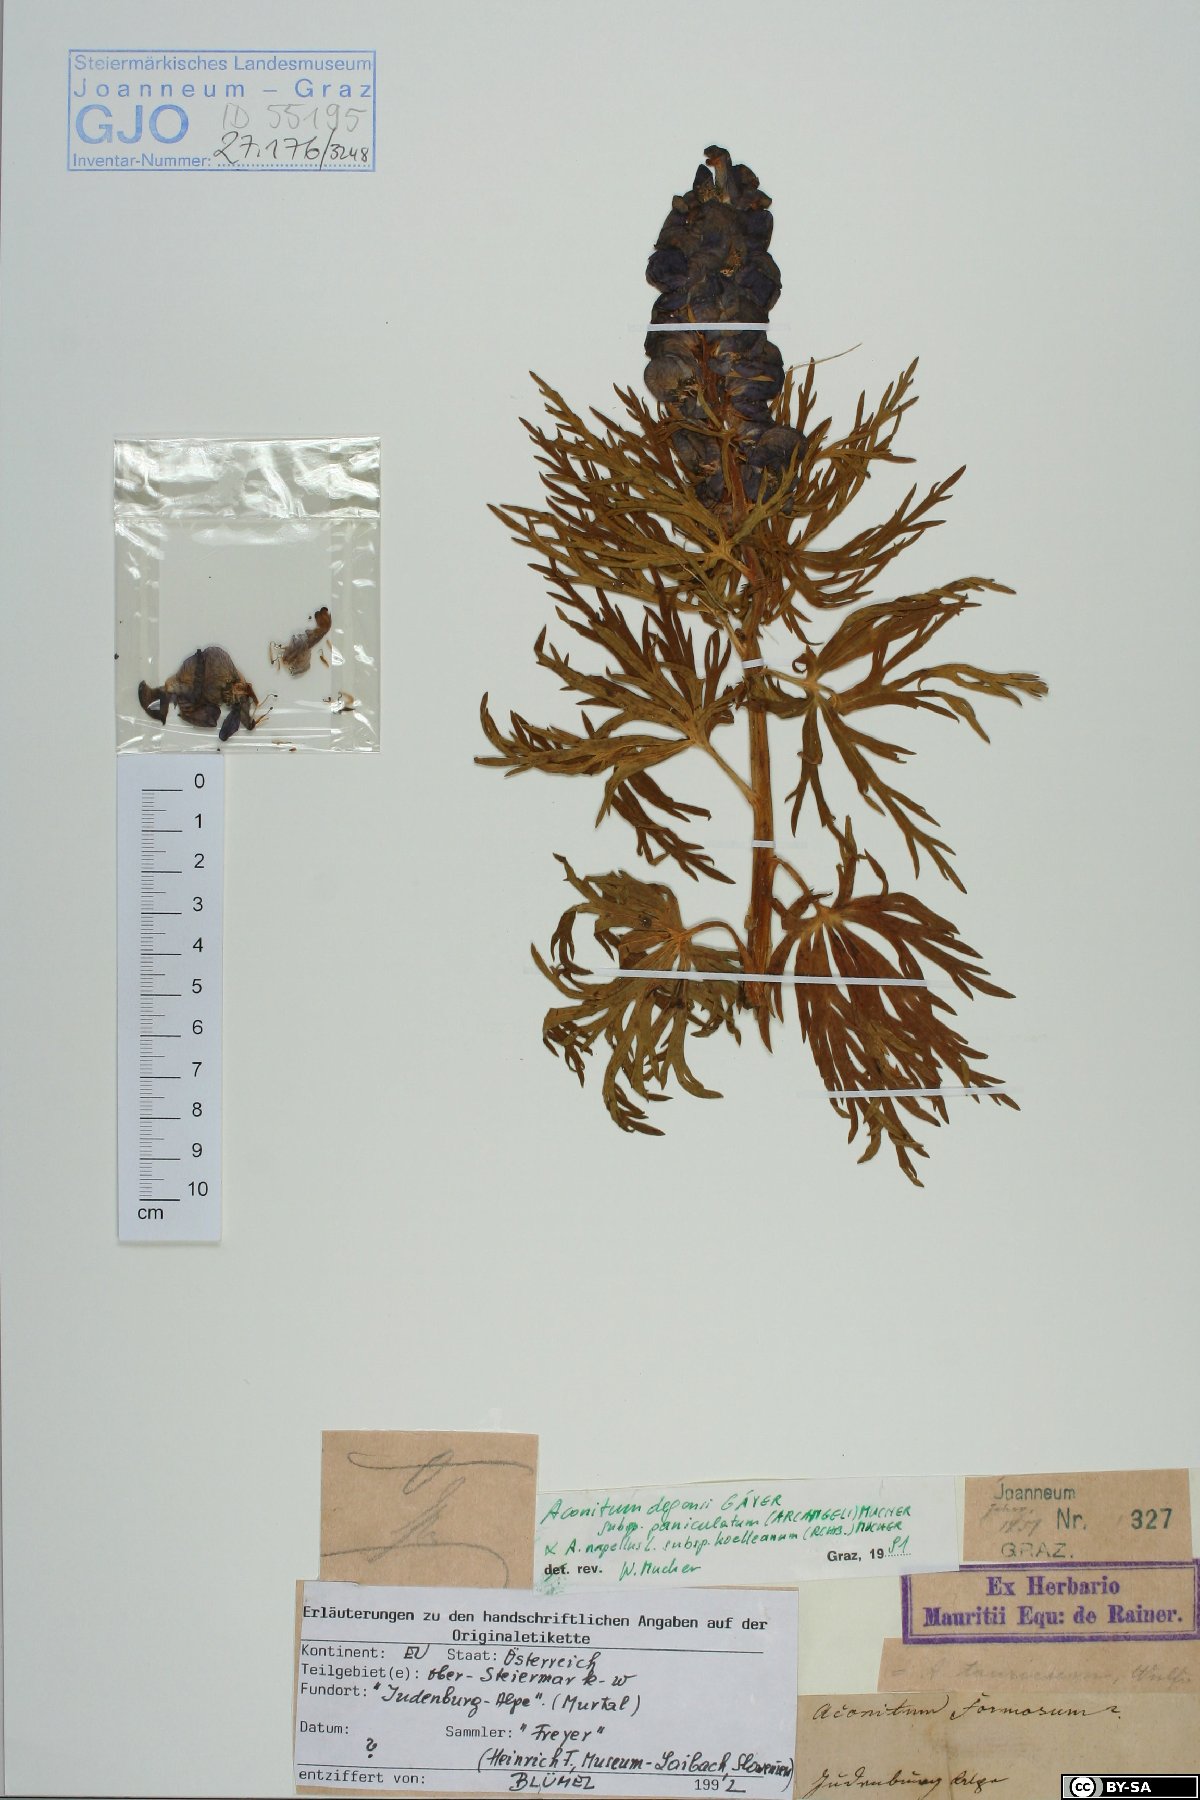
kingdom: Plantae
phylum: Tracheophyta
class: Magnoliopsida
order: Ranunculales
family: Ranunculaceae
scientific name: Ranunculaceae
